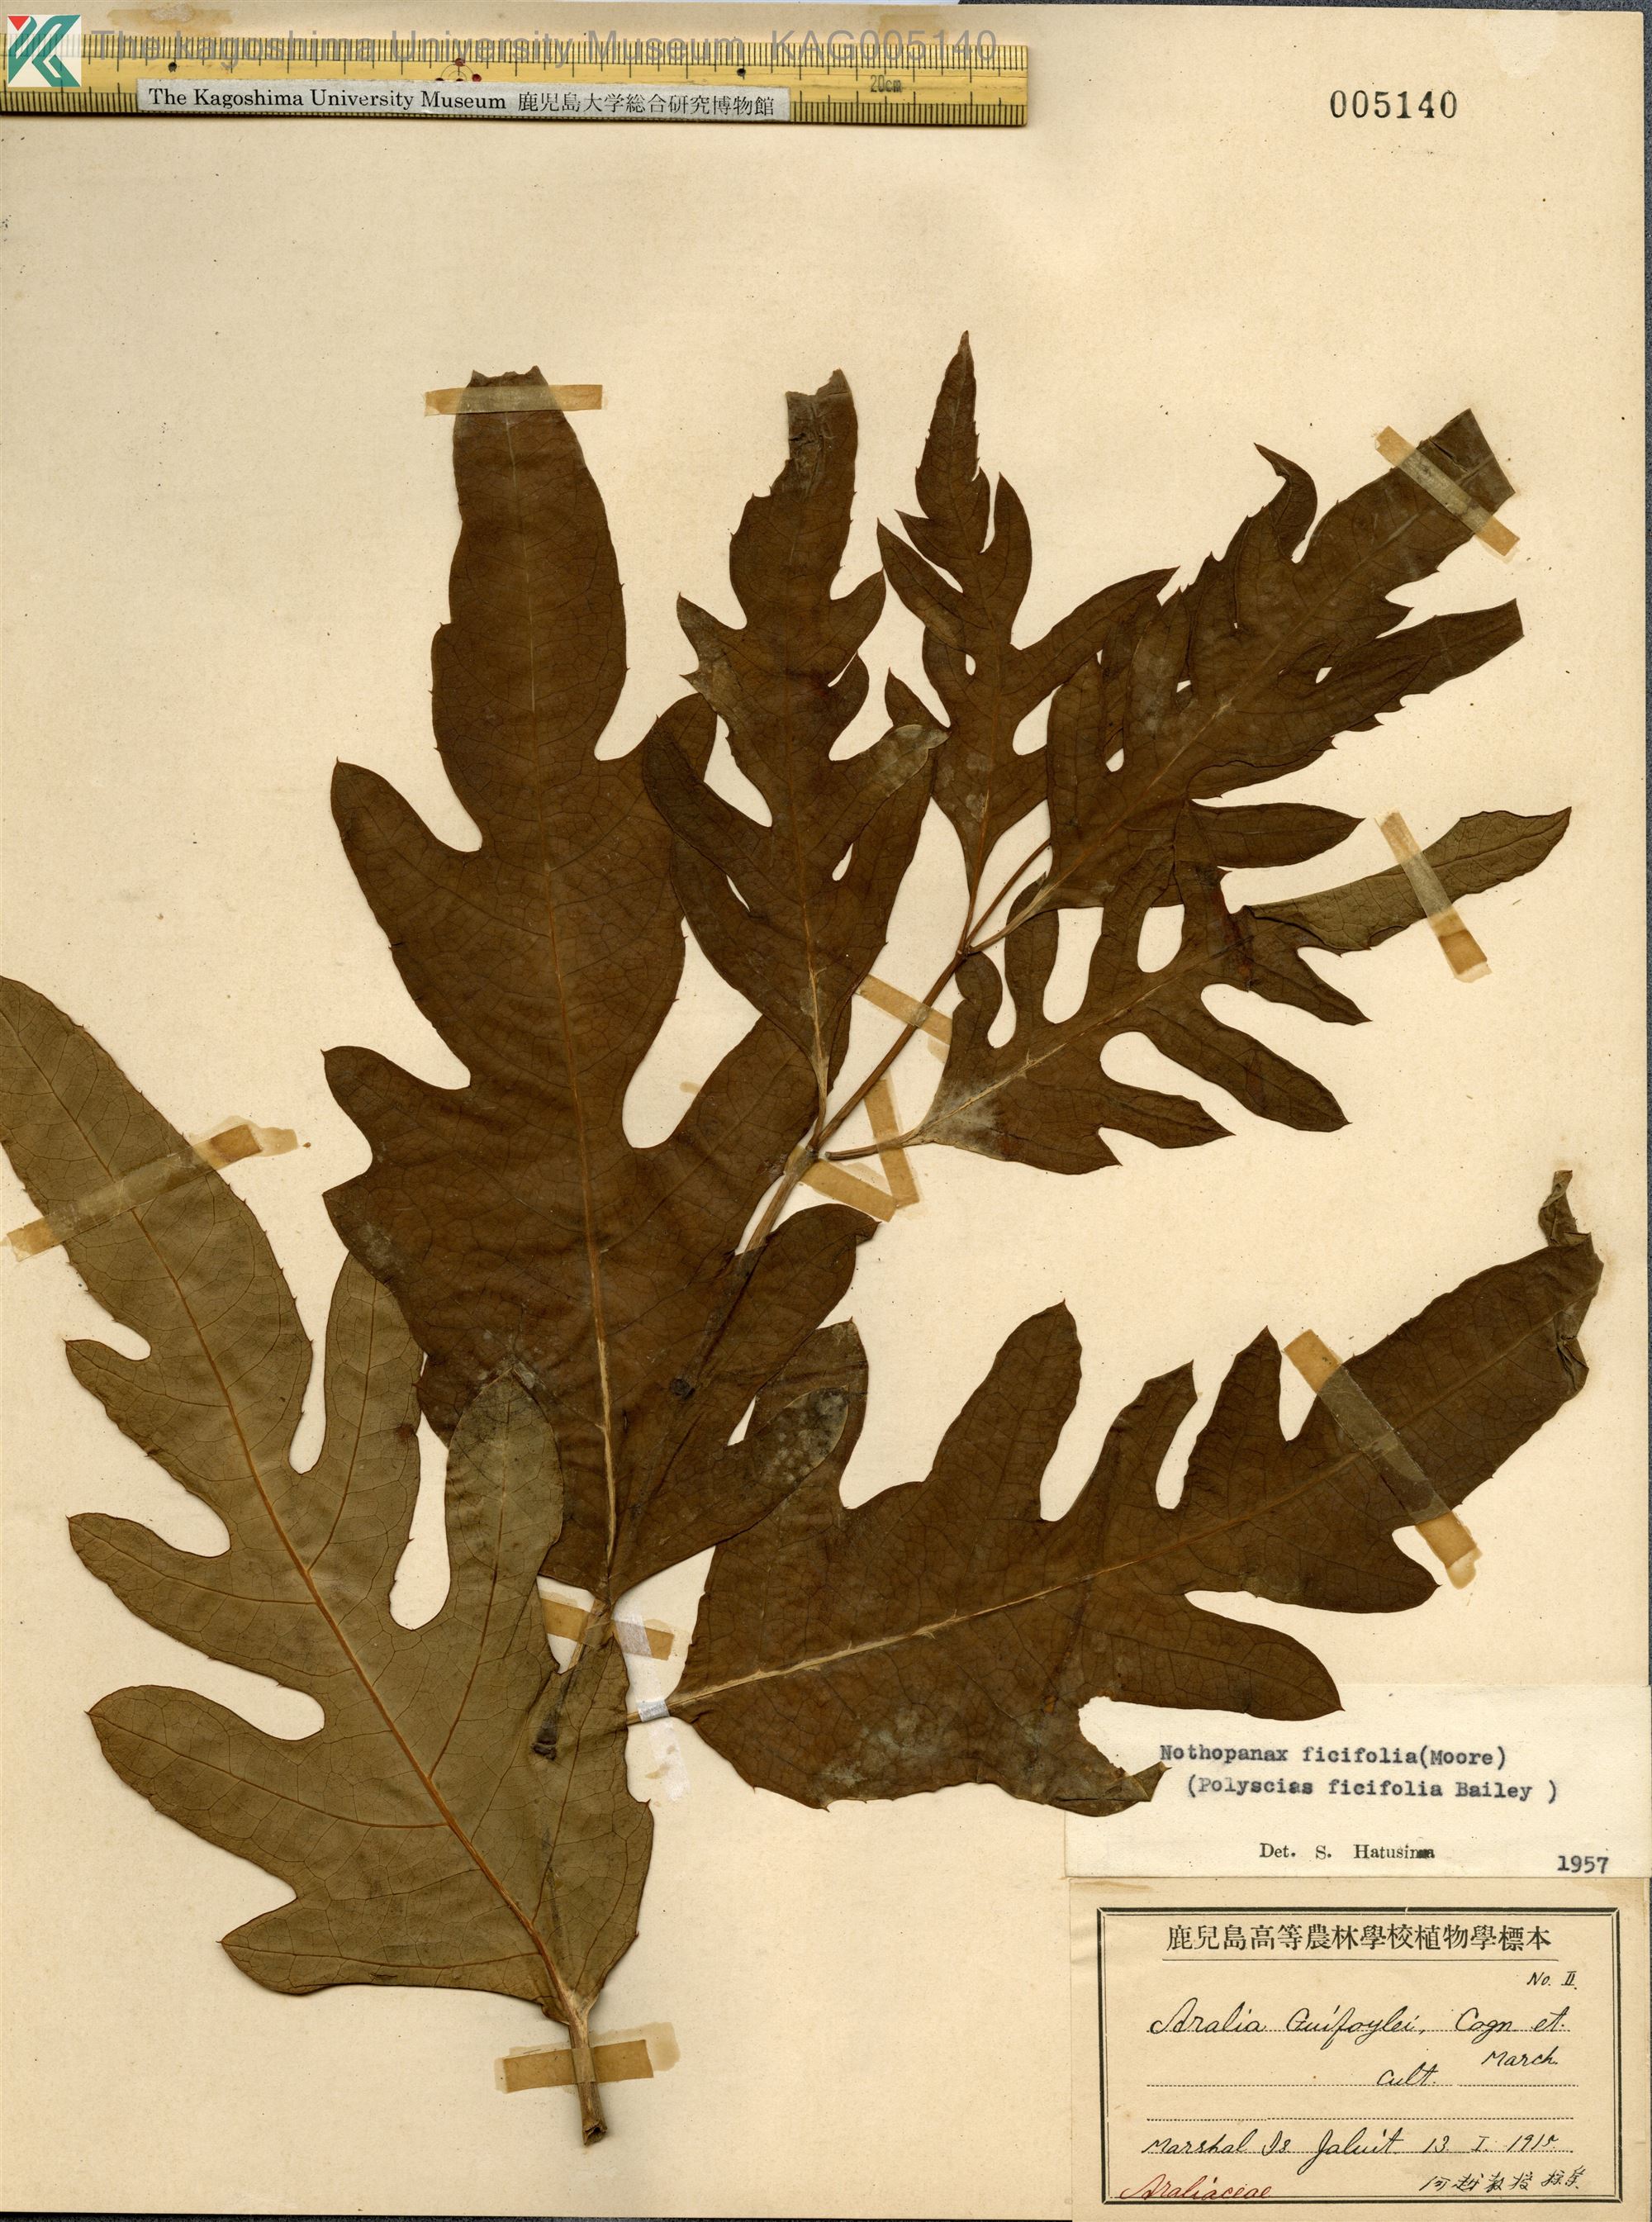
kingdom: Plantae
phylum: Tracheophyta
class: Magnoliopsida
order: Apiales
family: Araliaceae
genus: Polyscias
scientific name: Polyscias
